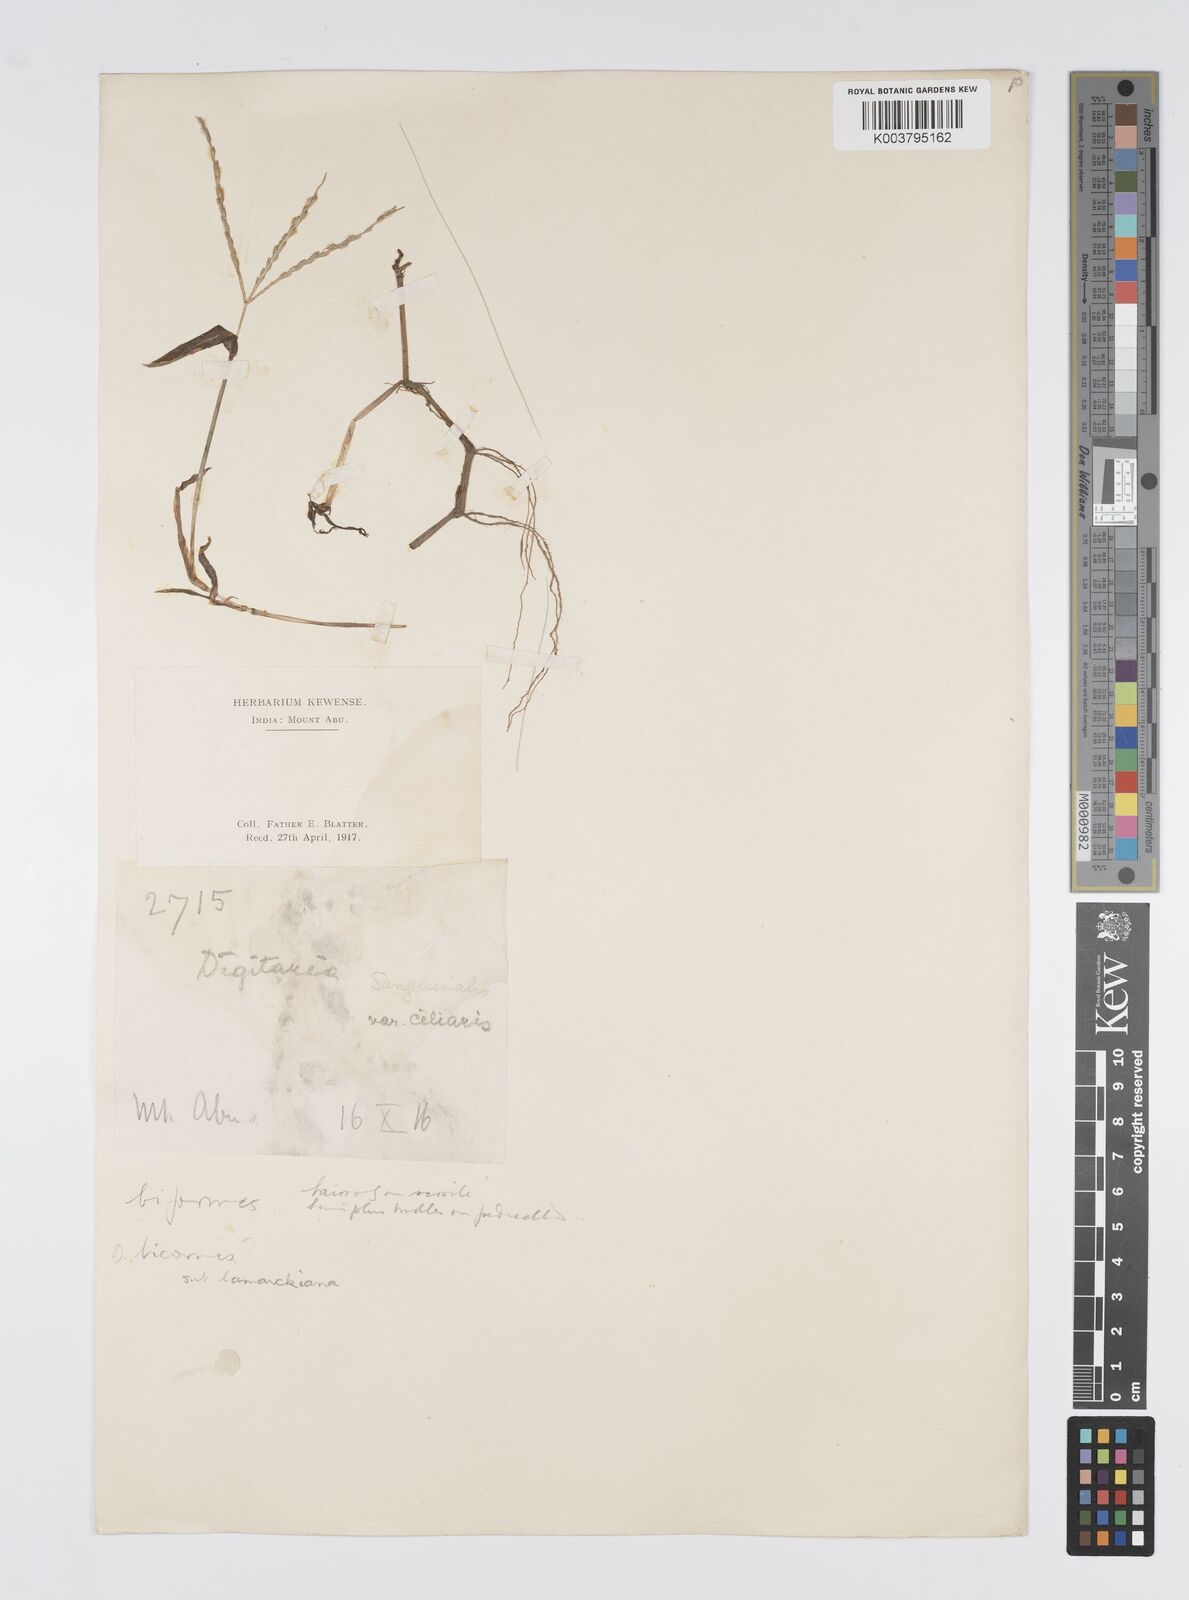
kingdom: Plantae
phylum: Tracheophyta
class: Liliopsida
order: Poales
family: Poaceae
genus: Digitaria
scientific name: Digitaria ciliaris
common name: Tropical finger-grass
